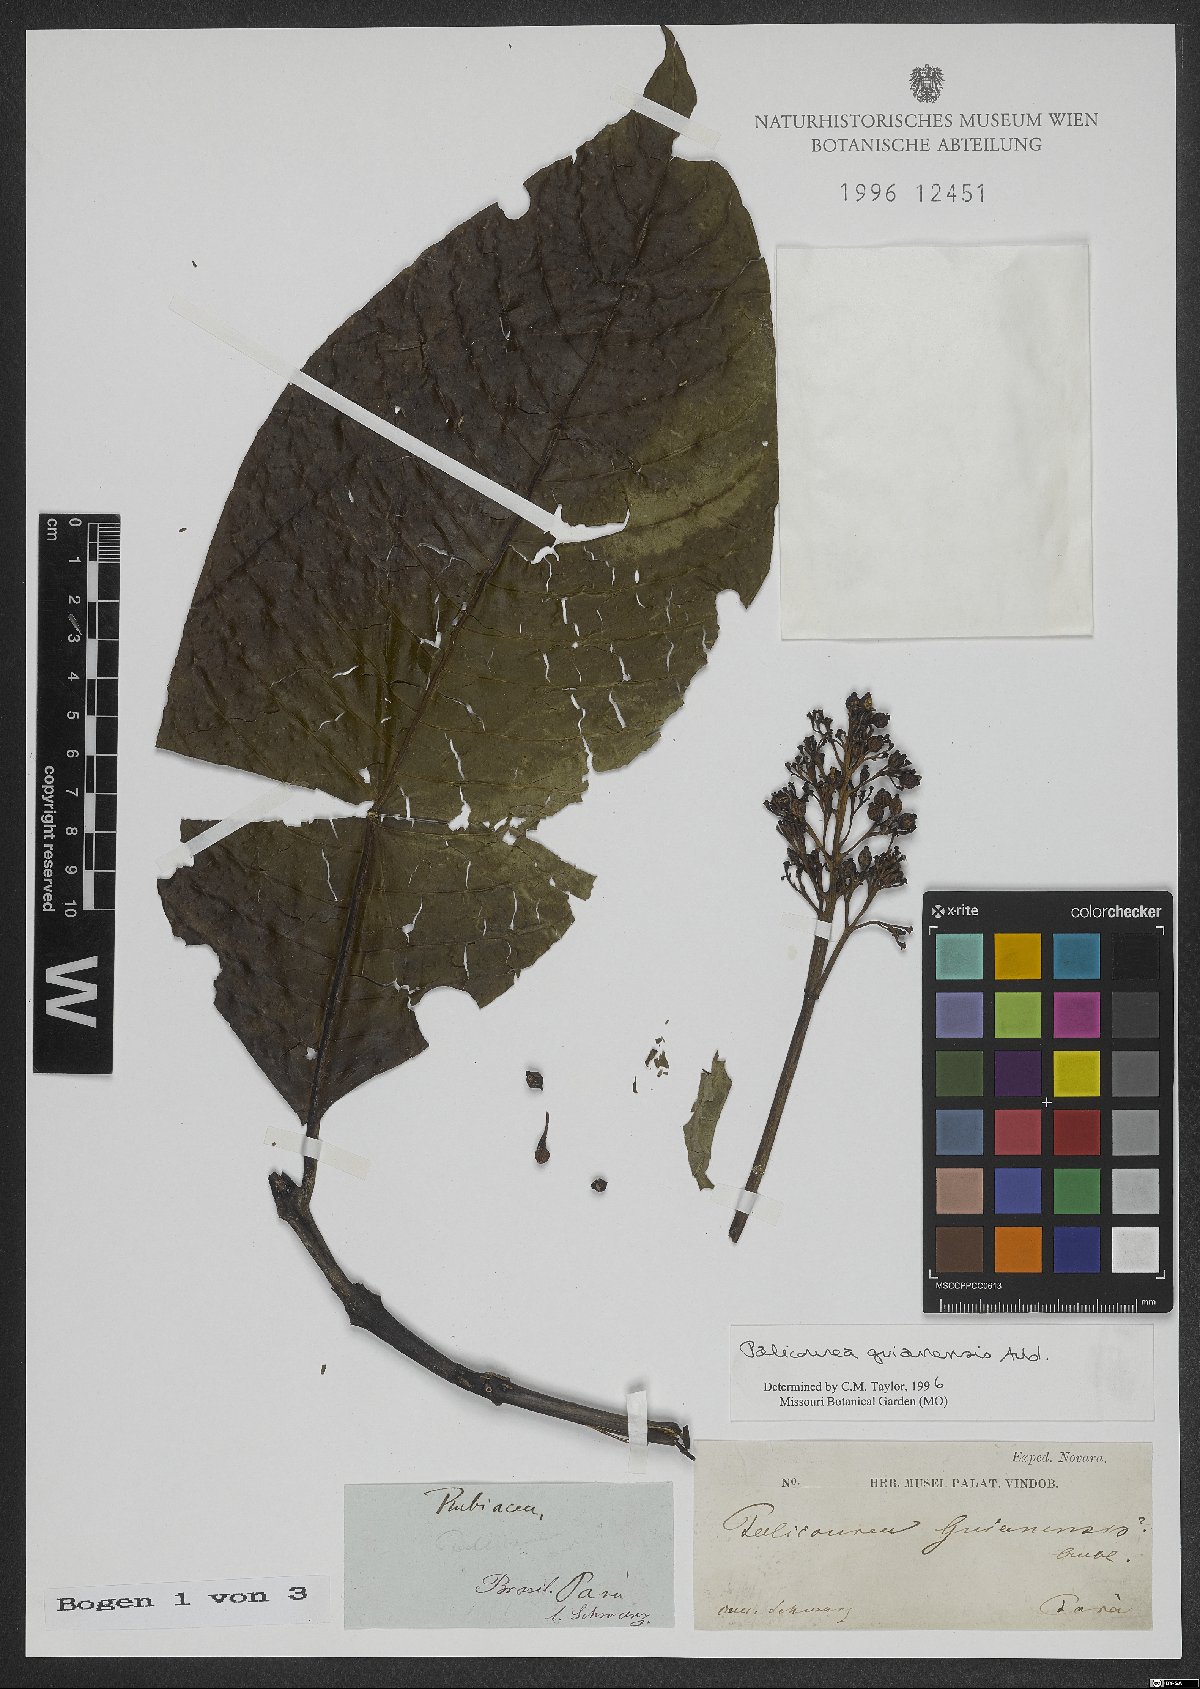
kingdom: Plantae
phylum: Tracheophyta
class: Magnoliopsida
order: Gentianales
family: Rubiaceae
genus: Palicourea
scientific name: Palicourea guianensis
